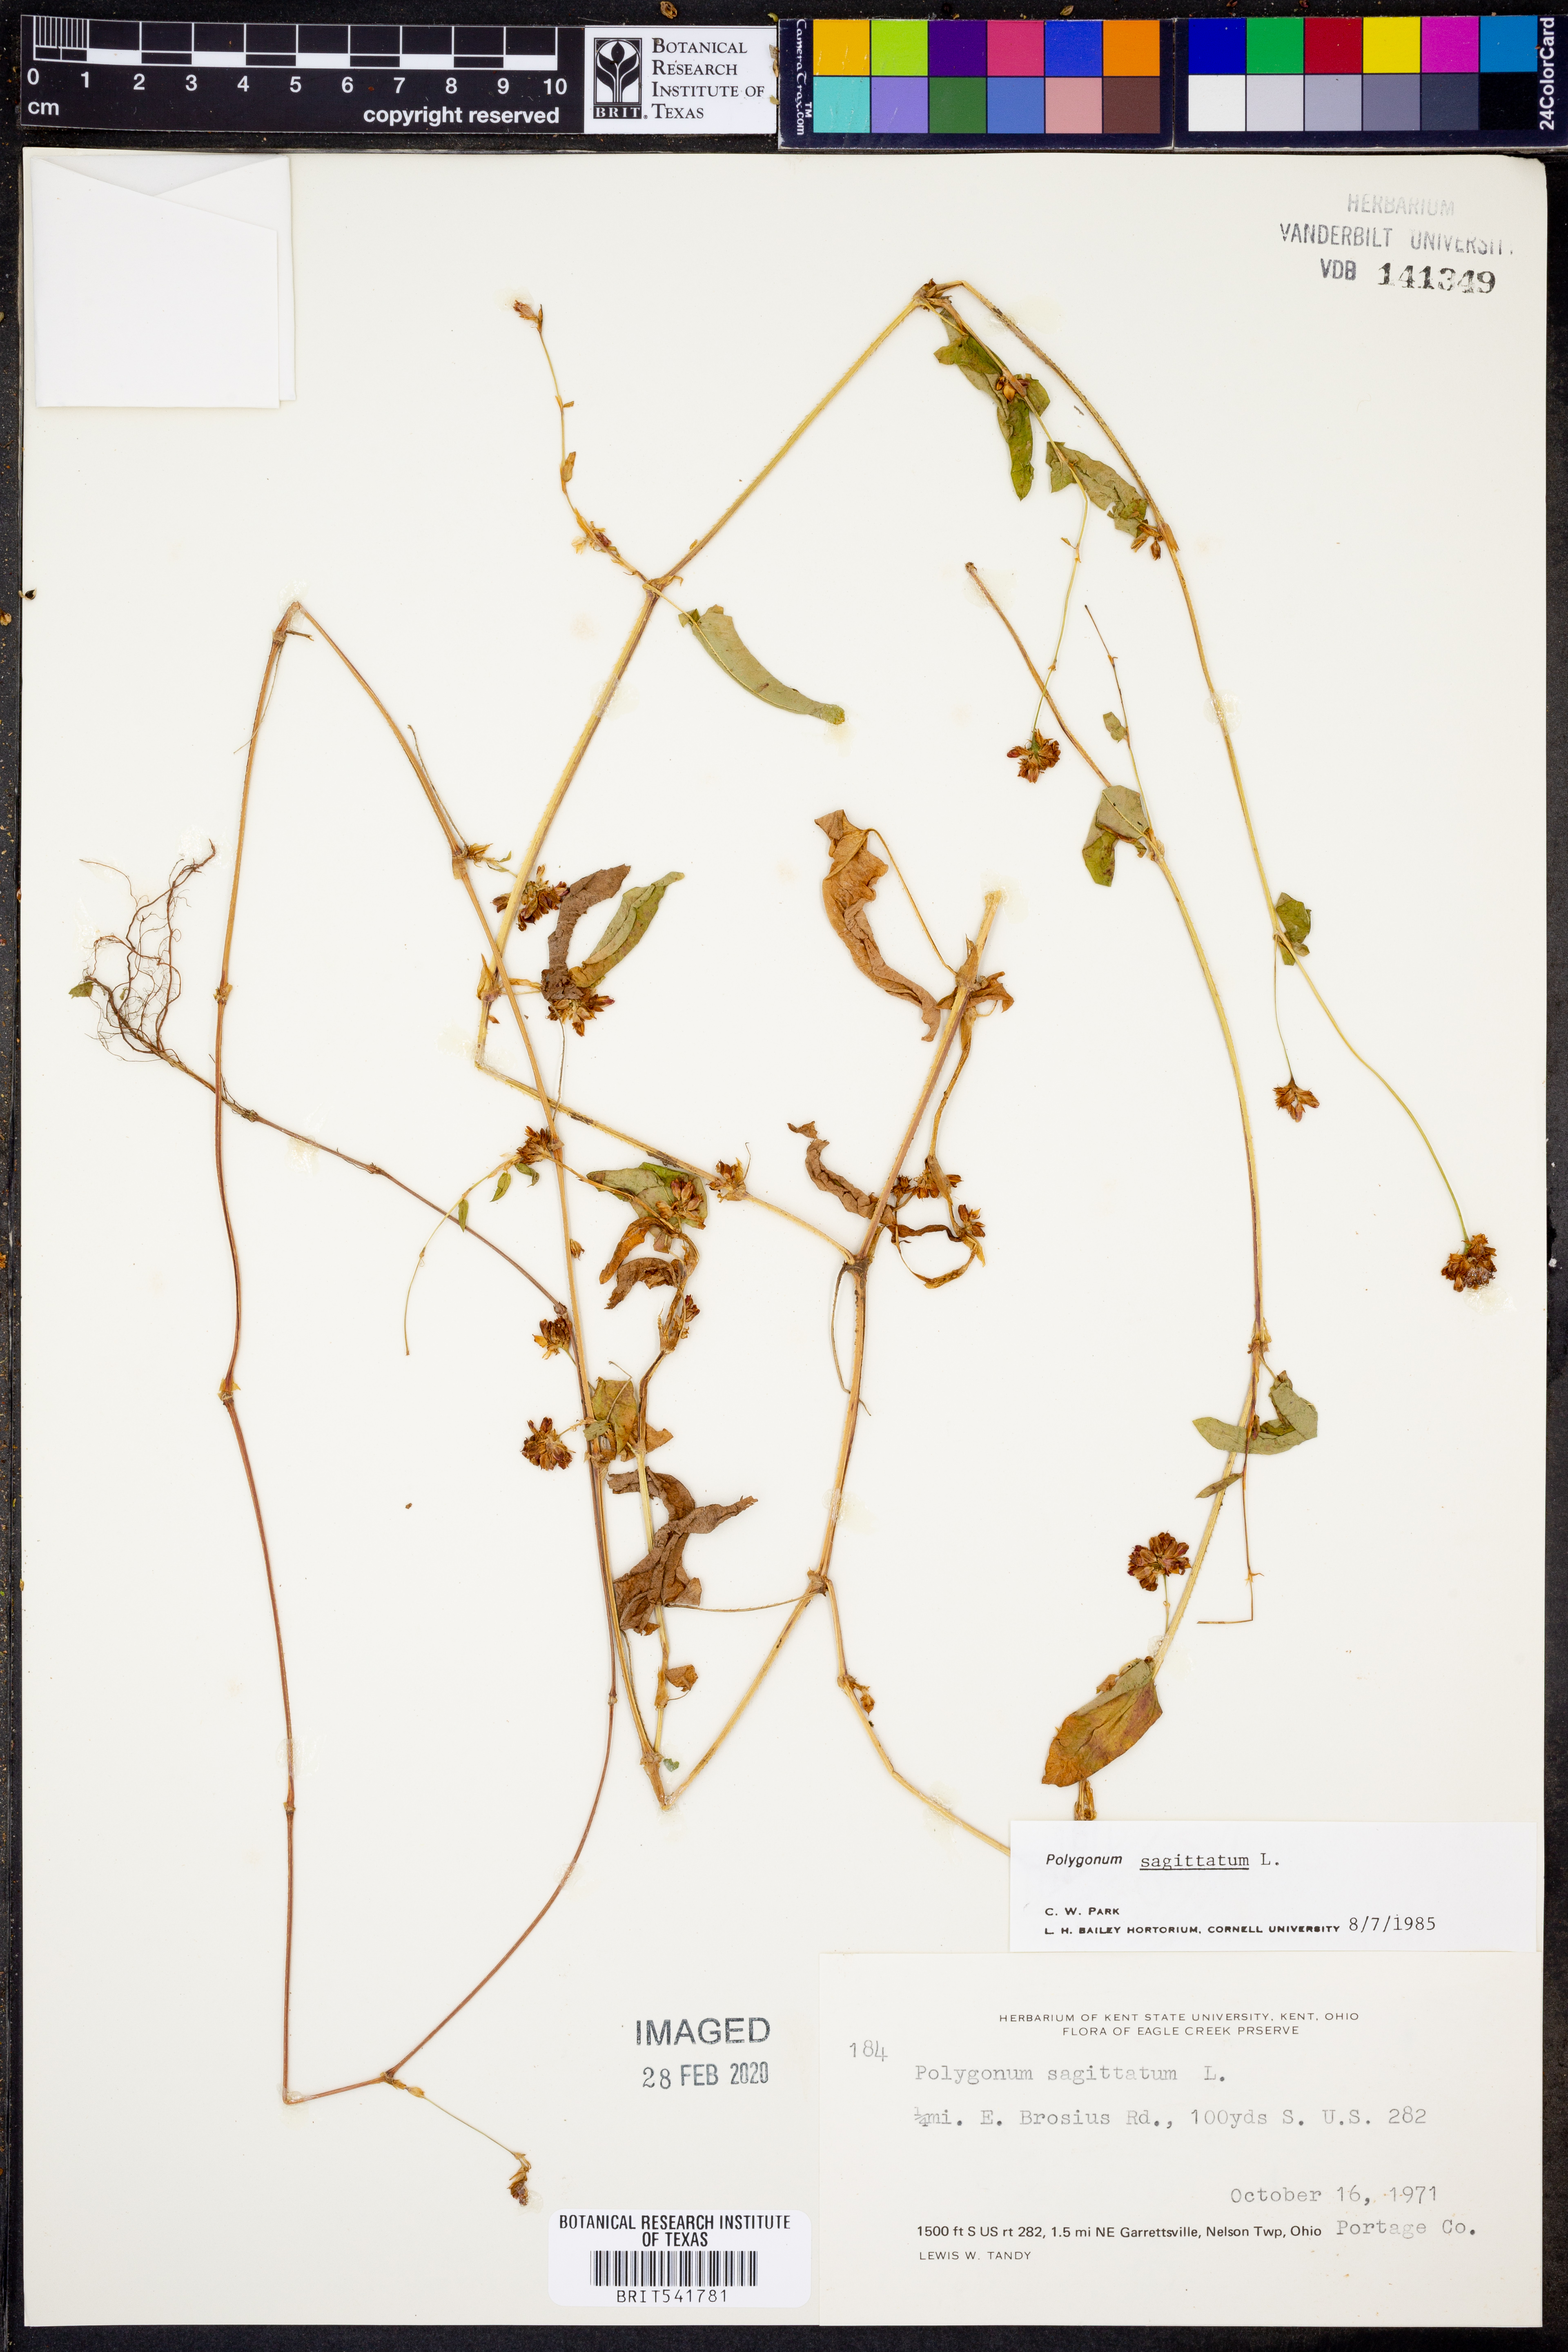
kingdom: Plantae
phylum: Tracheophyta
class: Magnoliopsida
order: Caryophyllales
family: Polygonaceae
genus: Persicaria
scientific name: Persicaria sagittata
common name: American tearthumb
